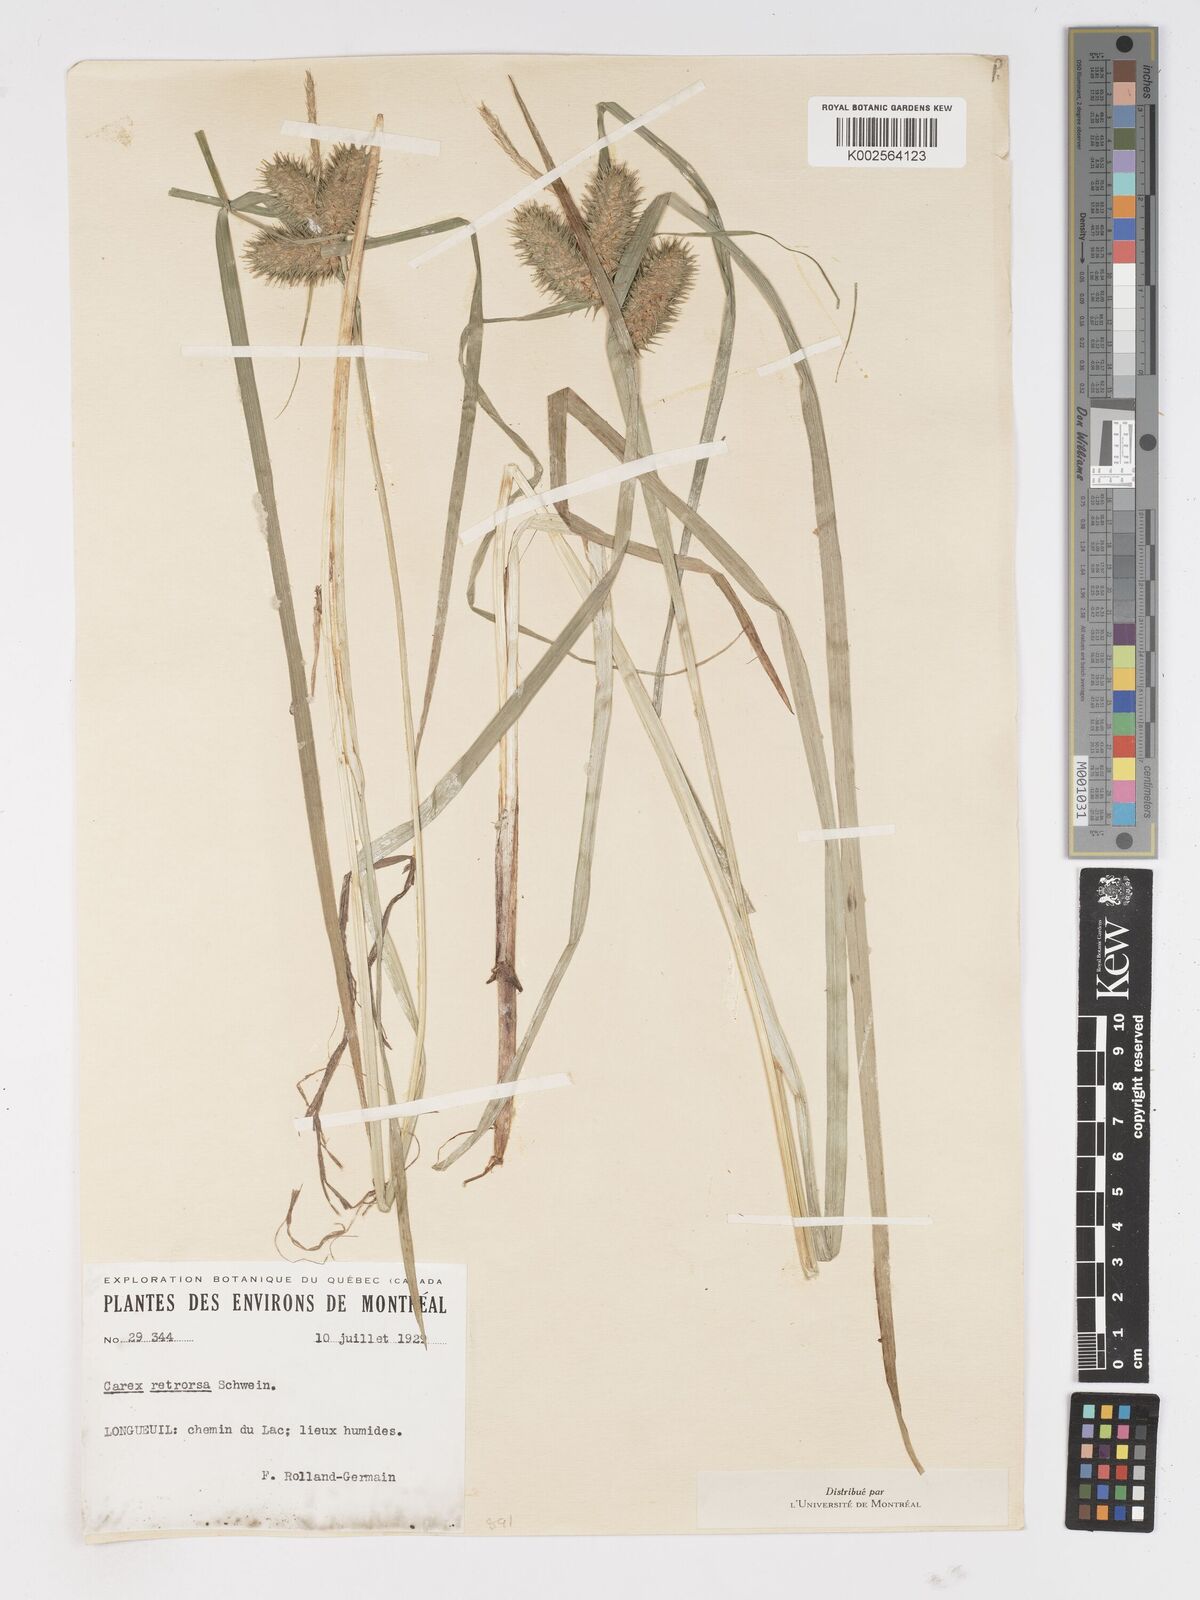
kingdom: Plantae
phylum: Tracheophyta
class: Liliopsida
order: Poales
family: Cyperaceae
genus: Carex
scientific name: Carex retrorsa
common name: Knot-sheath sedge
